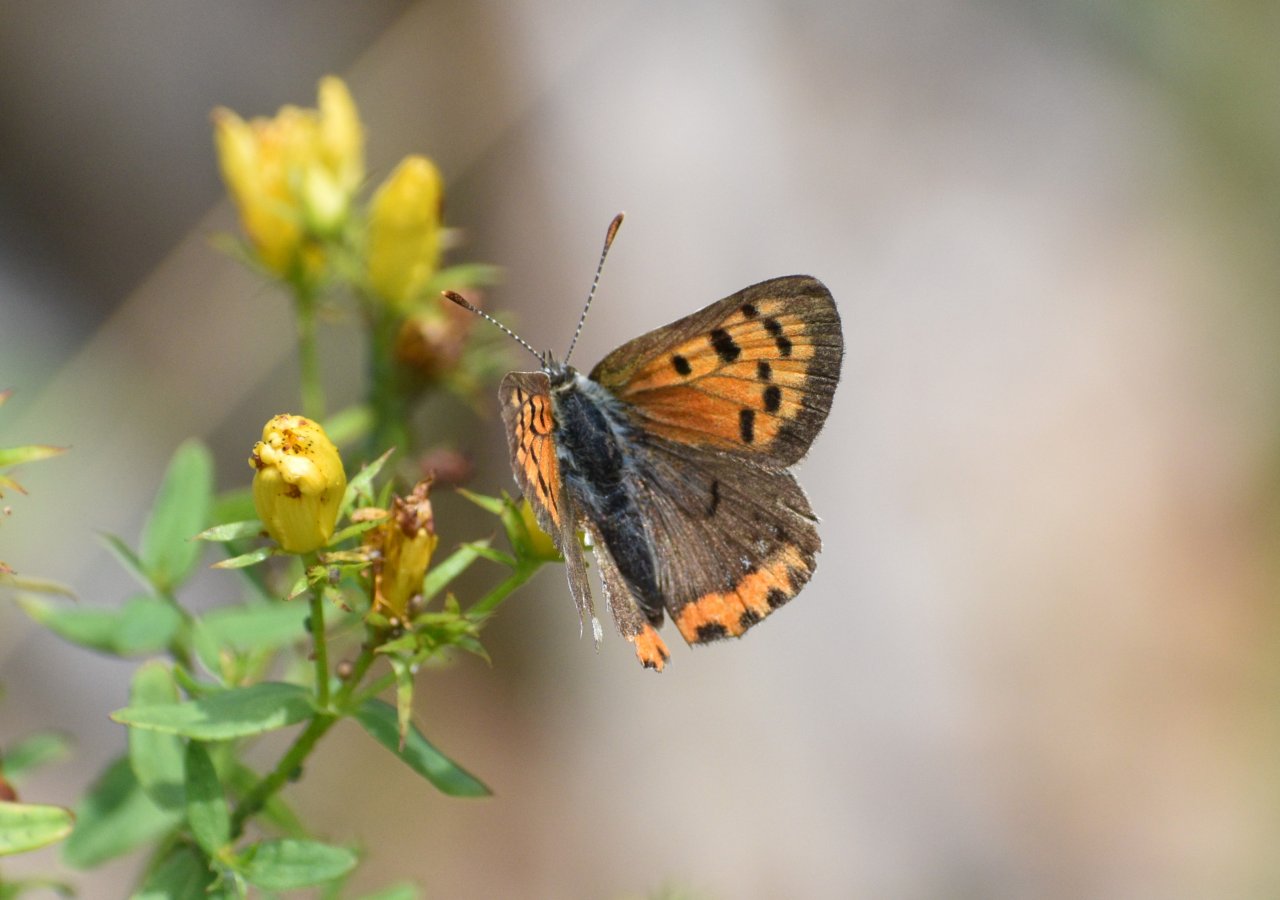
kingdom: Animalia
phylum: Arthropoda
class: Insecta
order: Lepidoptera
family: Lycaenidae
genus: Lycaena
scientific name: Lycaena phlaeas
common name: American Copper
